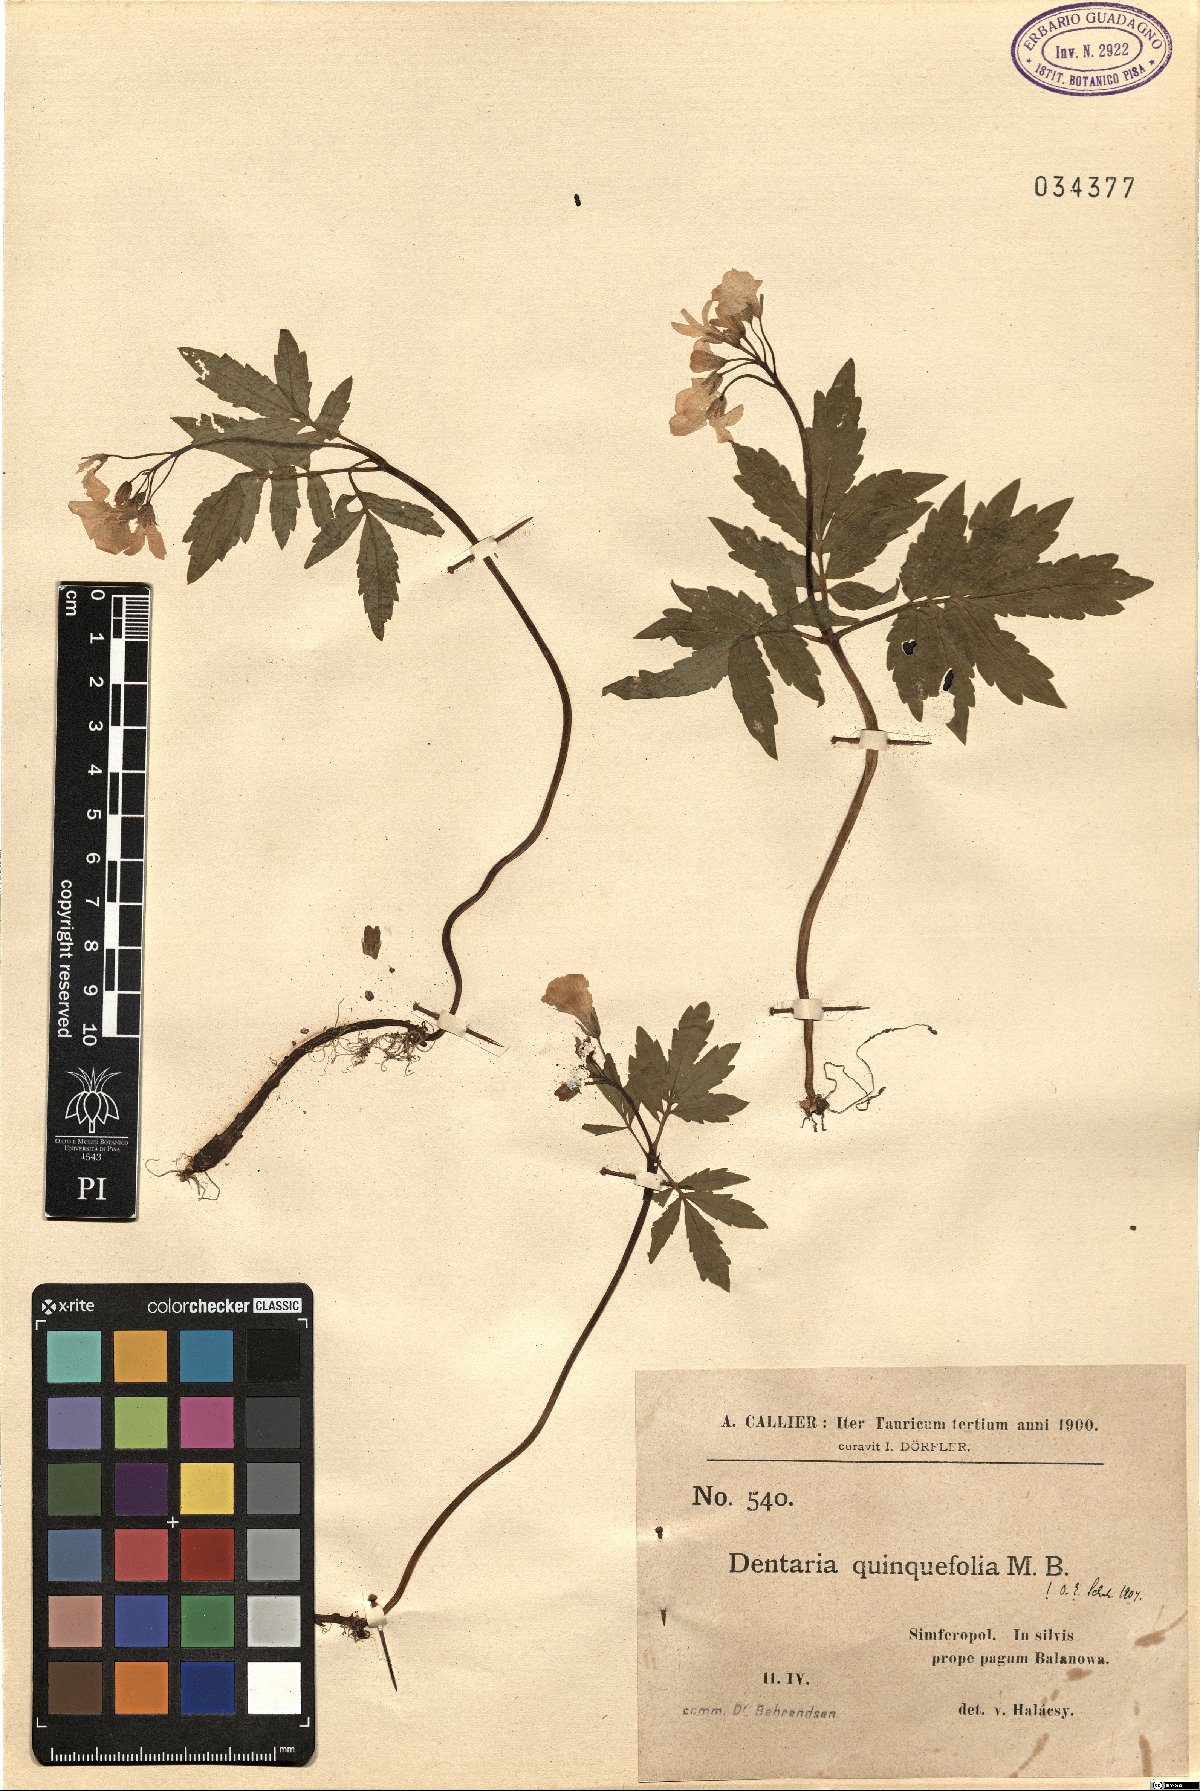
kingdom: Plantae
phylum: Tracheophyta
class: Magnoliopsida
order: Brassicales
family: Brassicaceae
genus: Cardamine
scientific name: Cardamine quinquefolia
